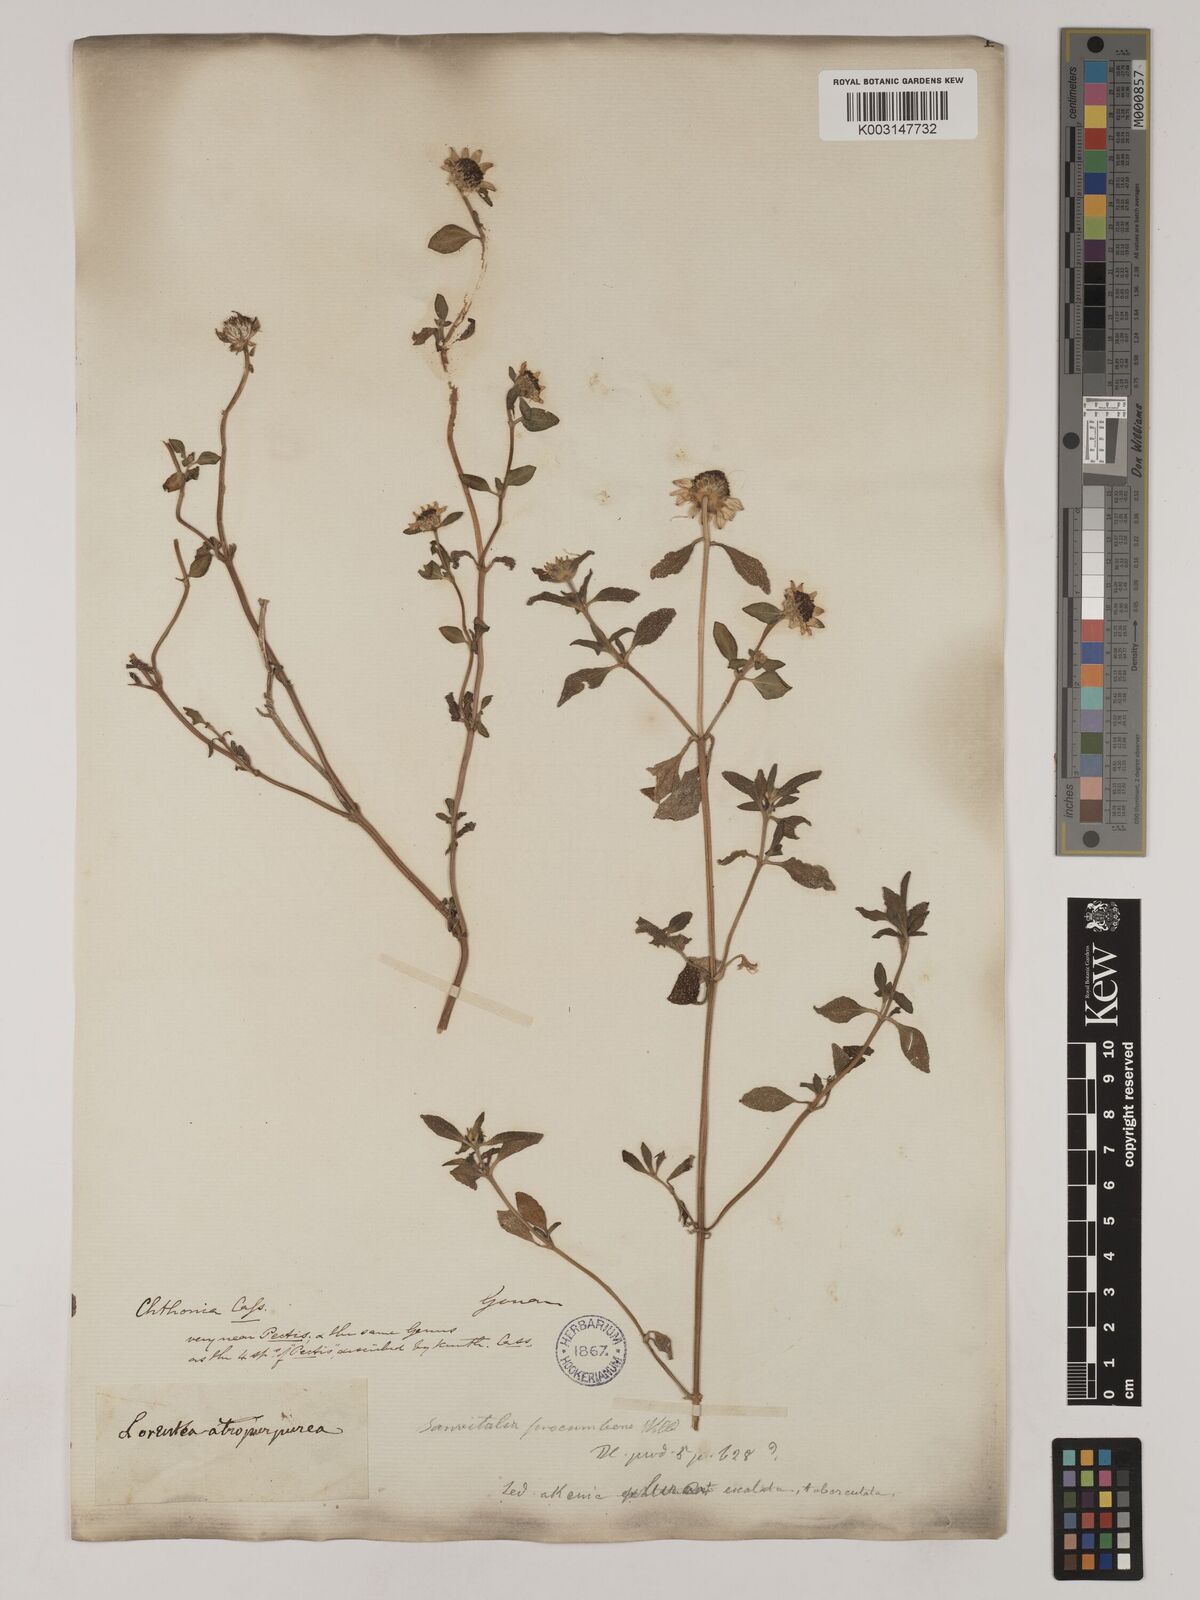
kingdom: Plantae
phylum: Tracheophyta
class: Magnoliopsida
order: Asterales
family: Asteraceae
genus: Sanvitalia
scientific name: Sanvitalia procumbens
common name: Mexican creeping zinnia
